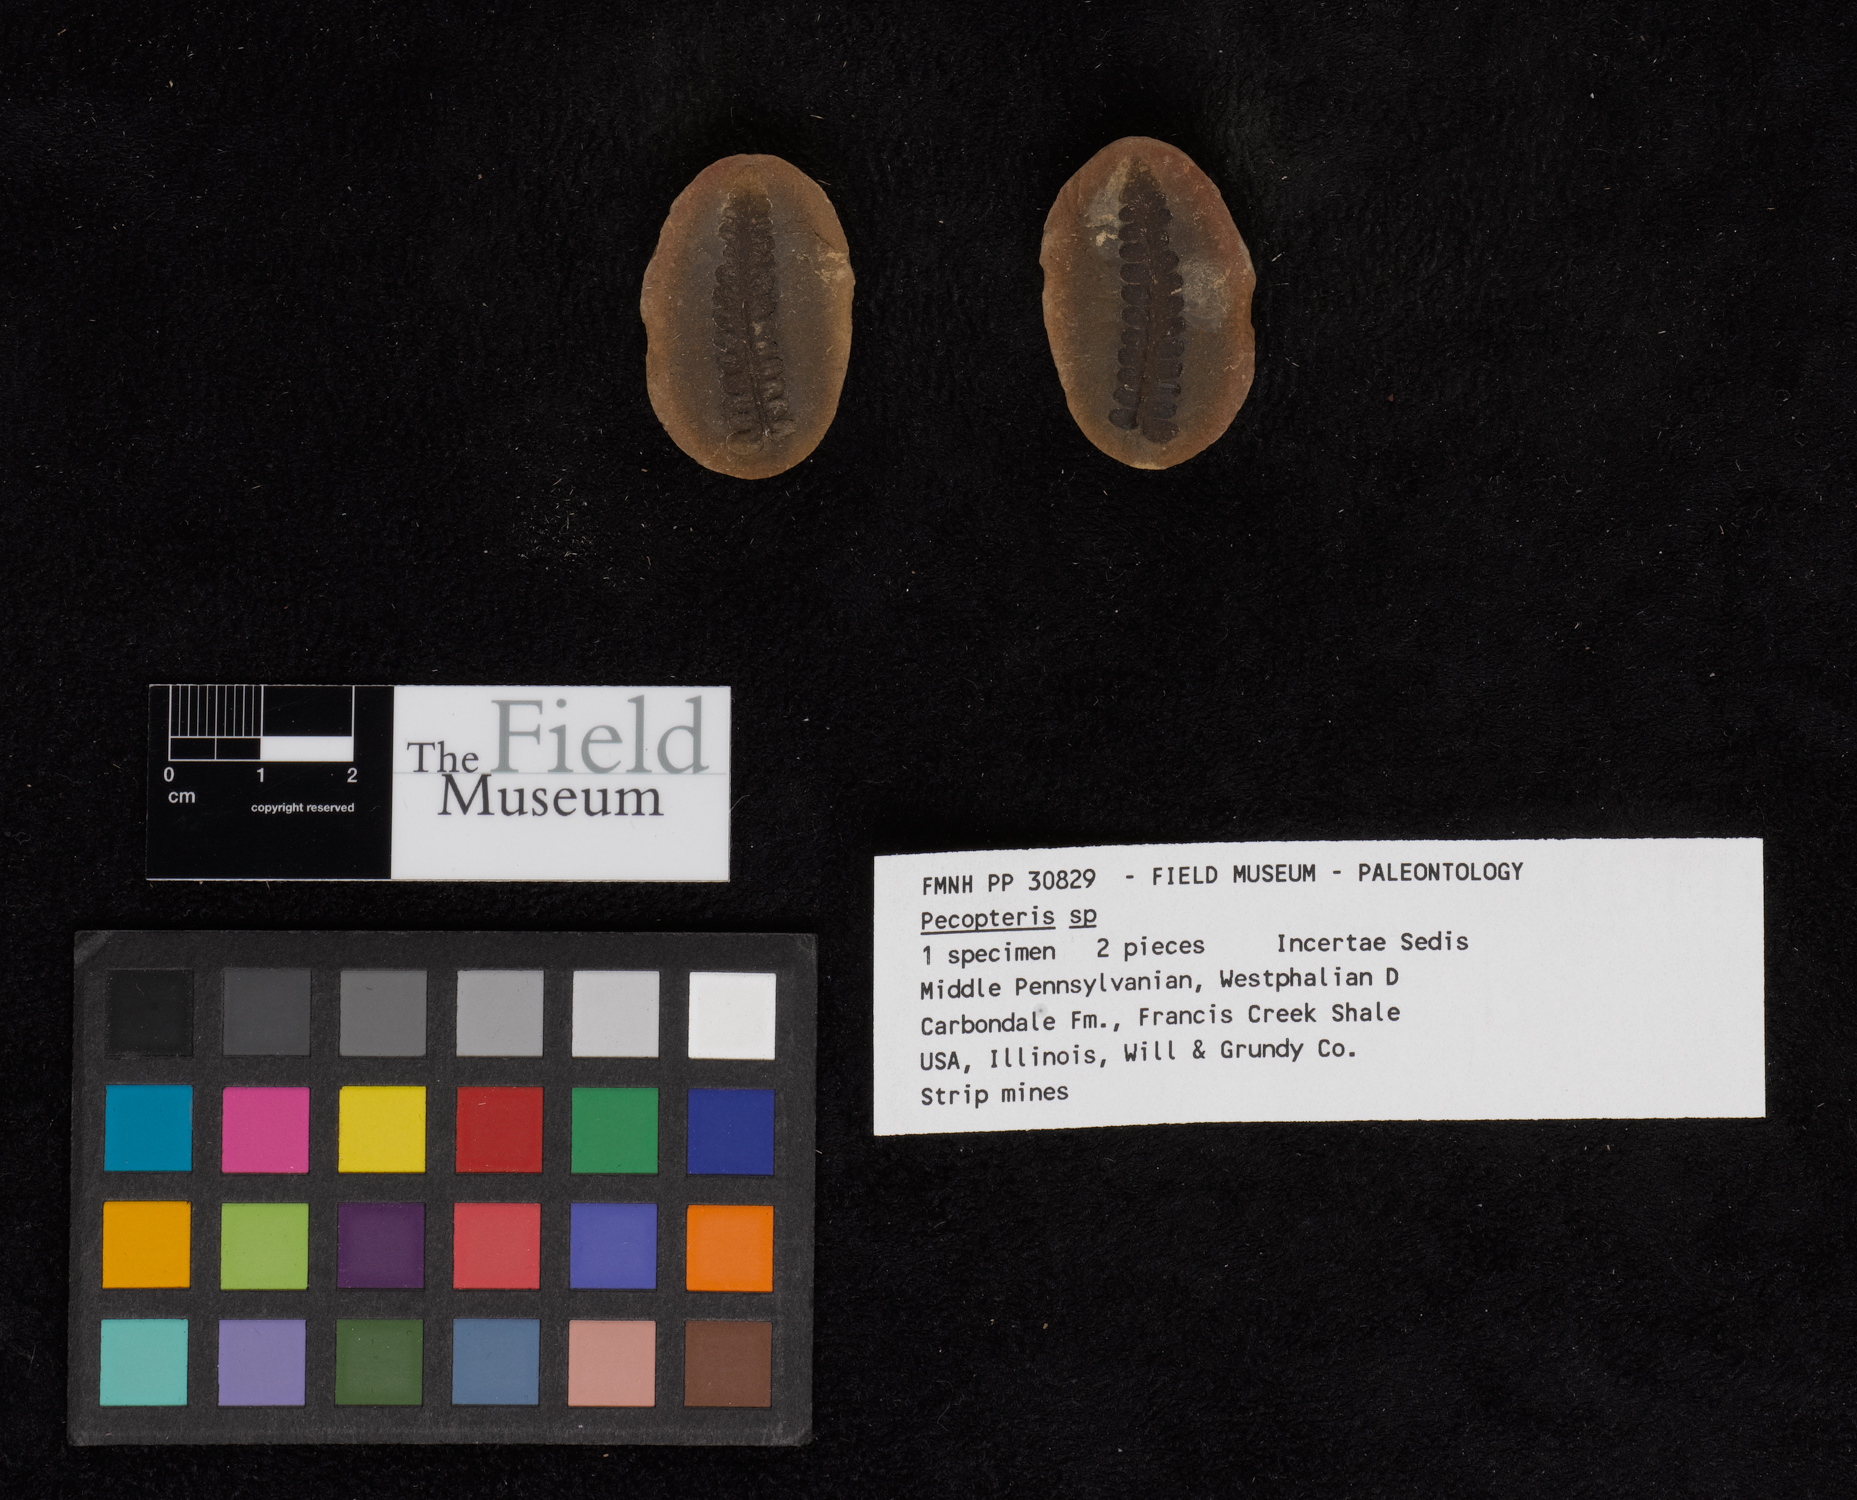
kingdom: Plantae
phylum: Tracheophyta
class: Polypodiopsida
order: Marattiales
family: Asterothecaceae
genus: Pecopteris
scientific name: Pecopteris
